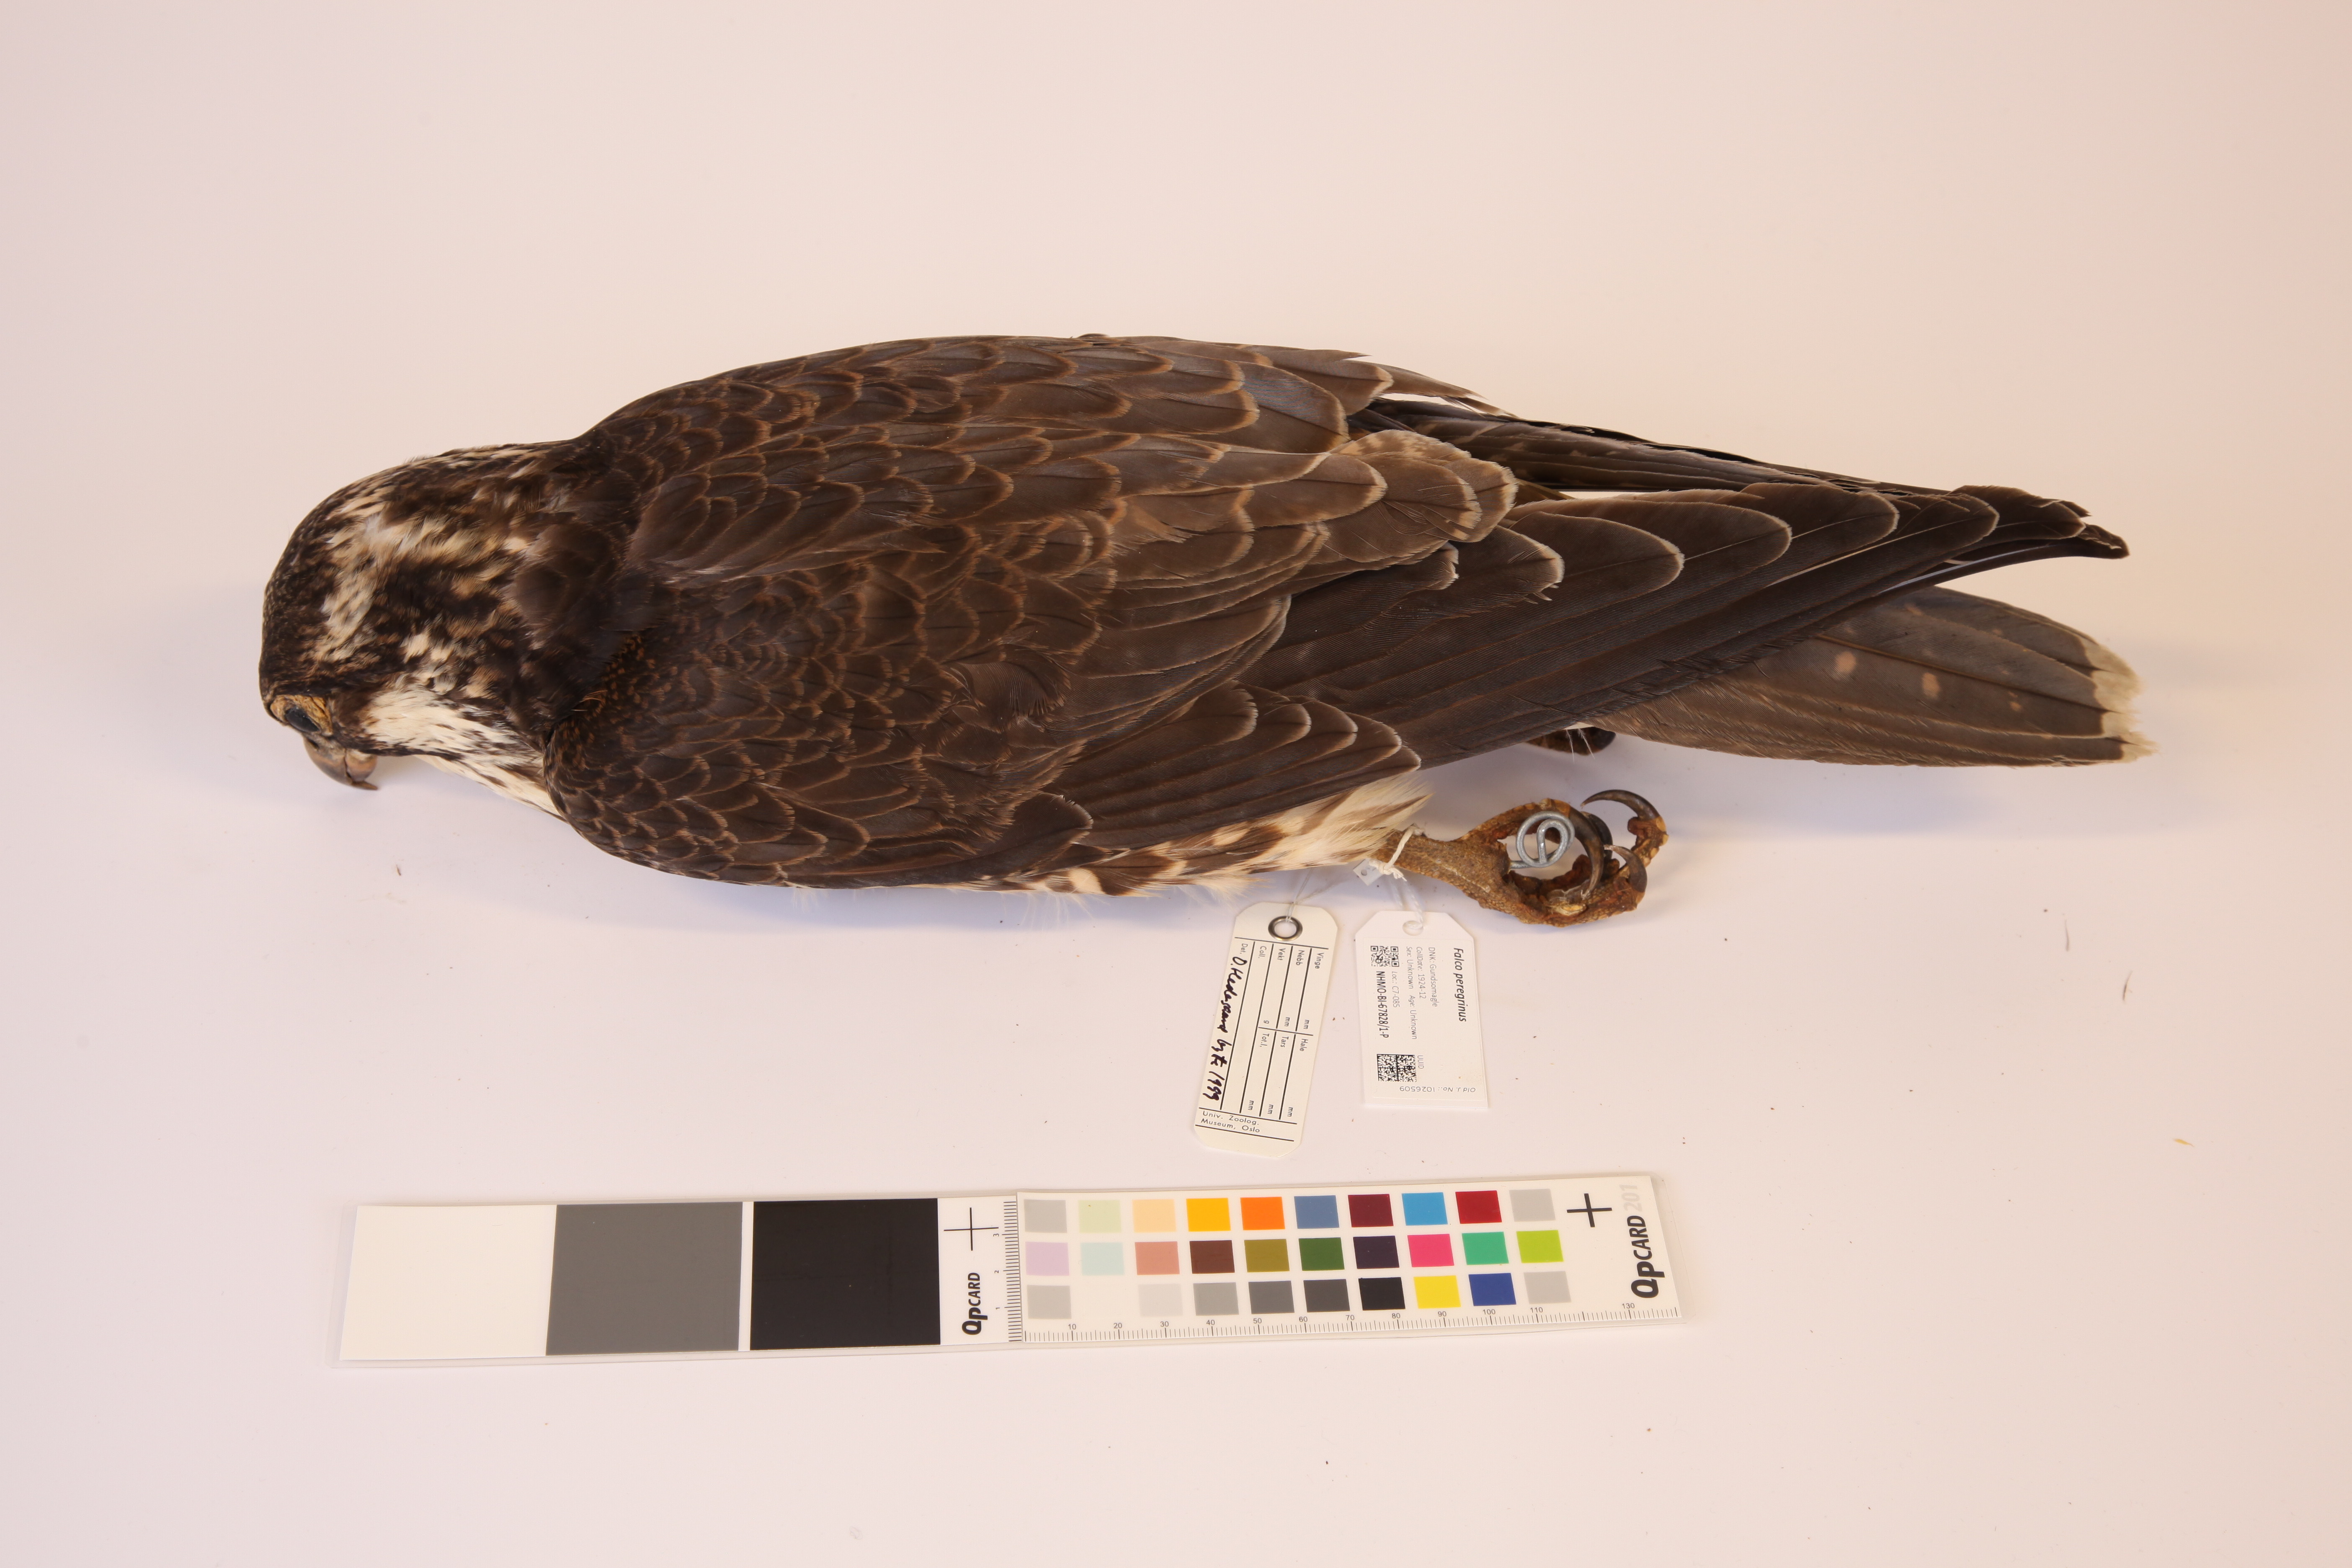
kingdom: Animalia
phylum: Chordata
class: Aves
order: Falconiformes
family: Falconidae
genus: Falco
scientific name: Falco peregrinus
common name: Peregrine falcon
